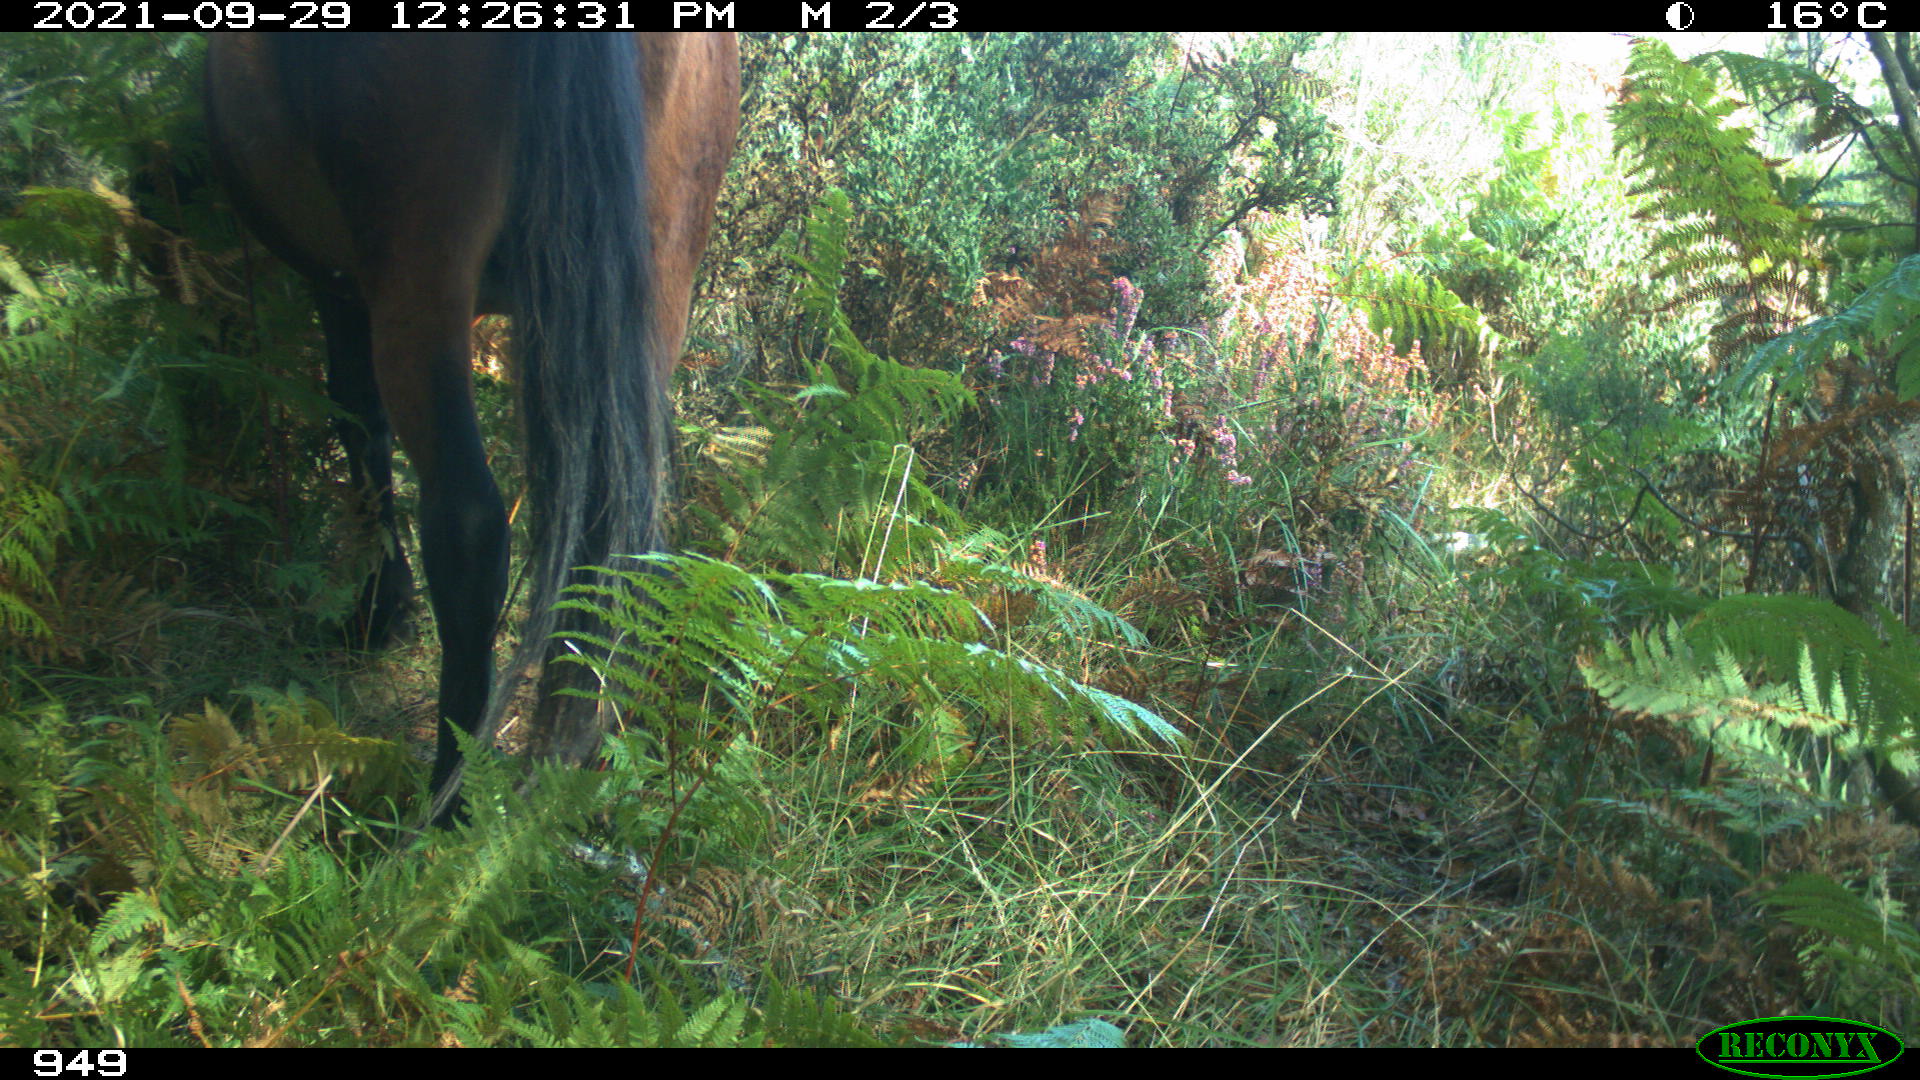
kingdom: Animalia
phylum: Chordata
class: Mammalia
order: Perissodactyla
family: Equidae
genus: Equus
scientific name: Equus caballus
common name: Horse
